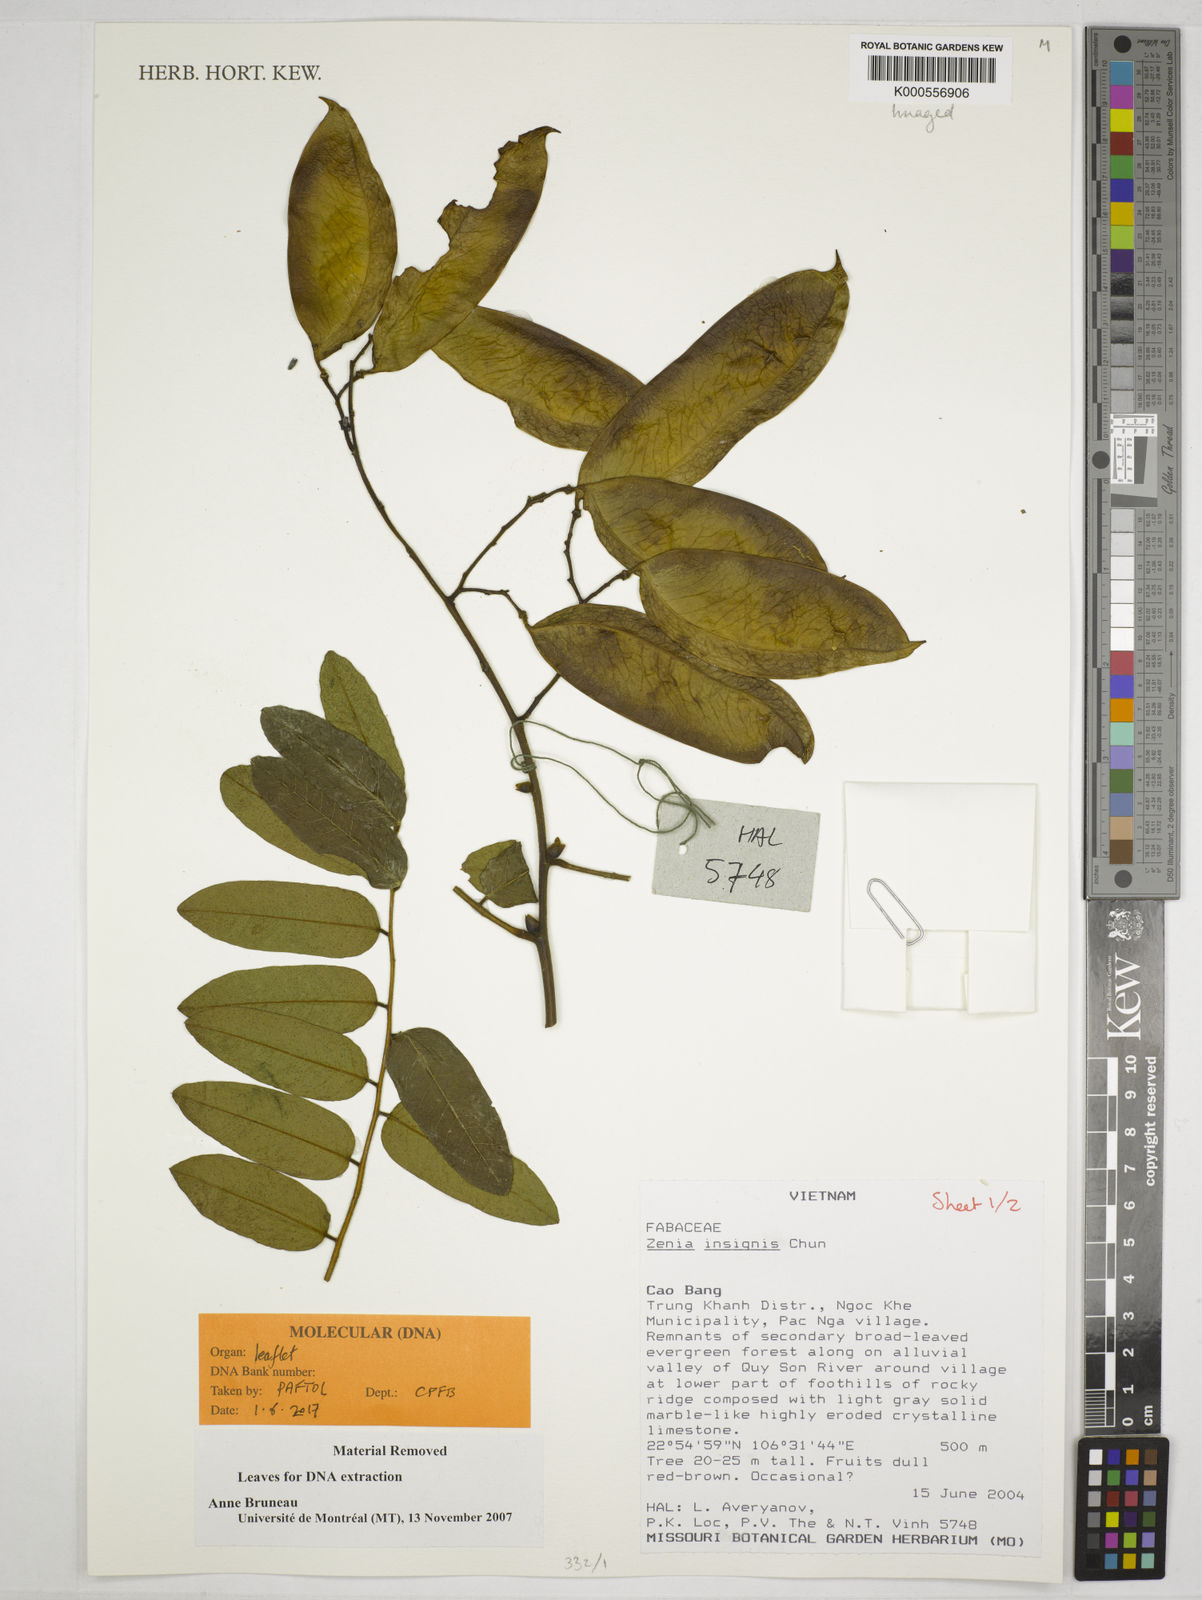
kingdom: Plantae
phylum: Tracheophyta
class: Magnoliopsida
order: Fabales
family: Fabaceae
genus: Zenia
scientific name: Zenia insignis
